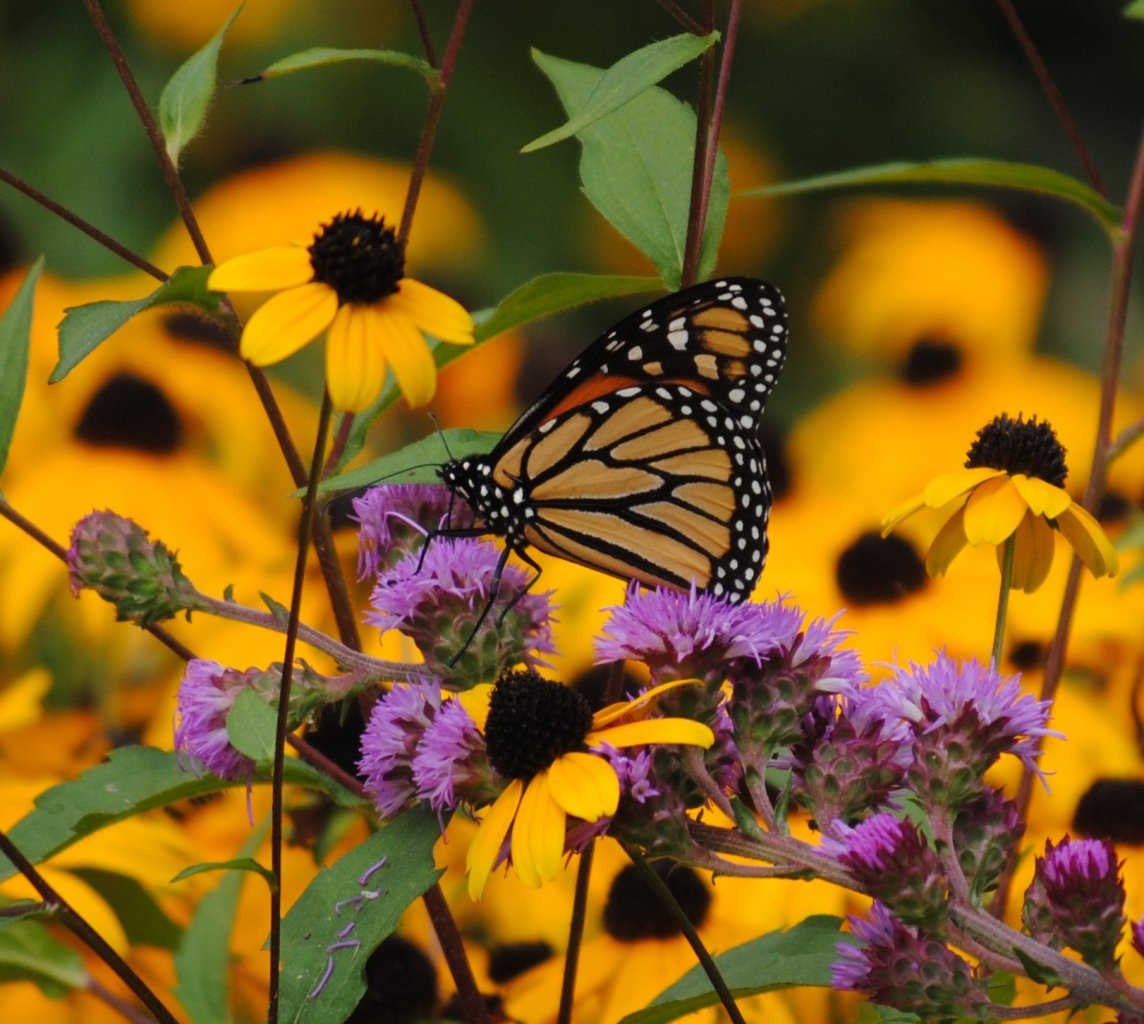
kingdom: Animalia
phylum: Arthropoda
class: Insecta
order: Lepidoptera
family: Nymphalidae
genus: Danaus
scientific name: Danaus plexippus
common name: Monarch
